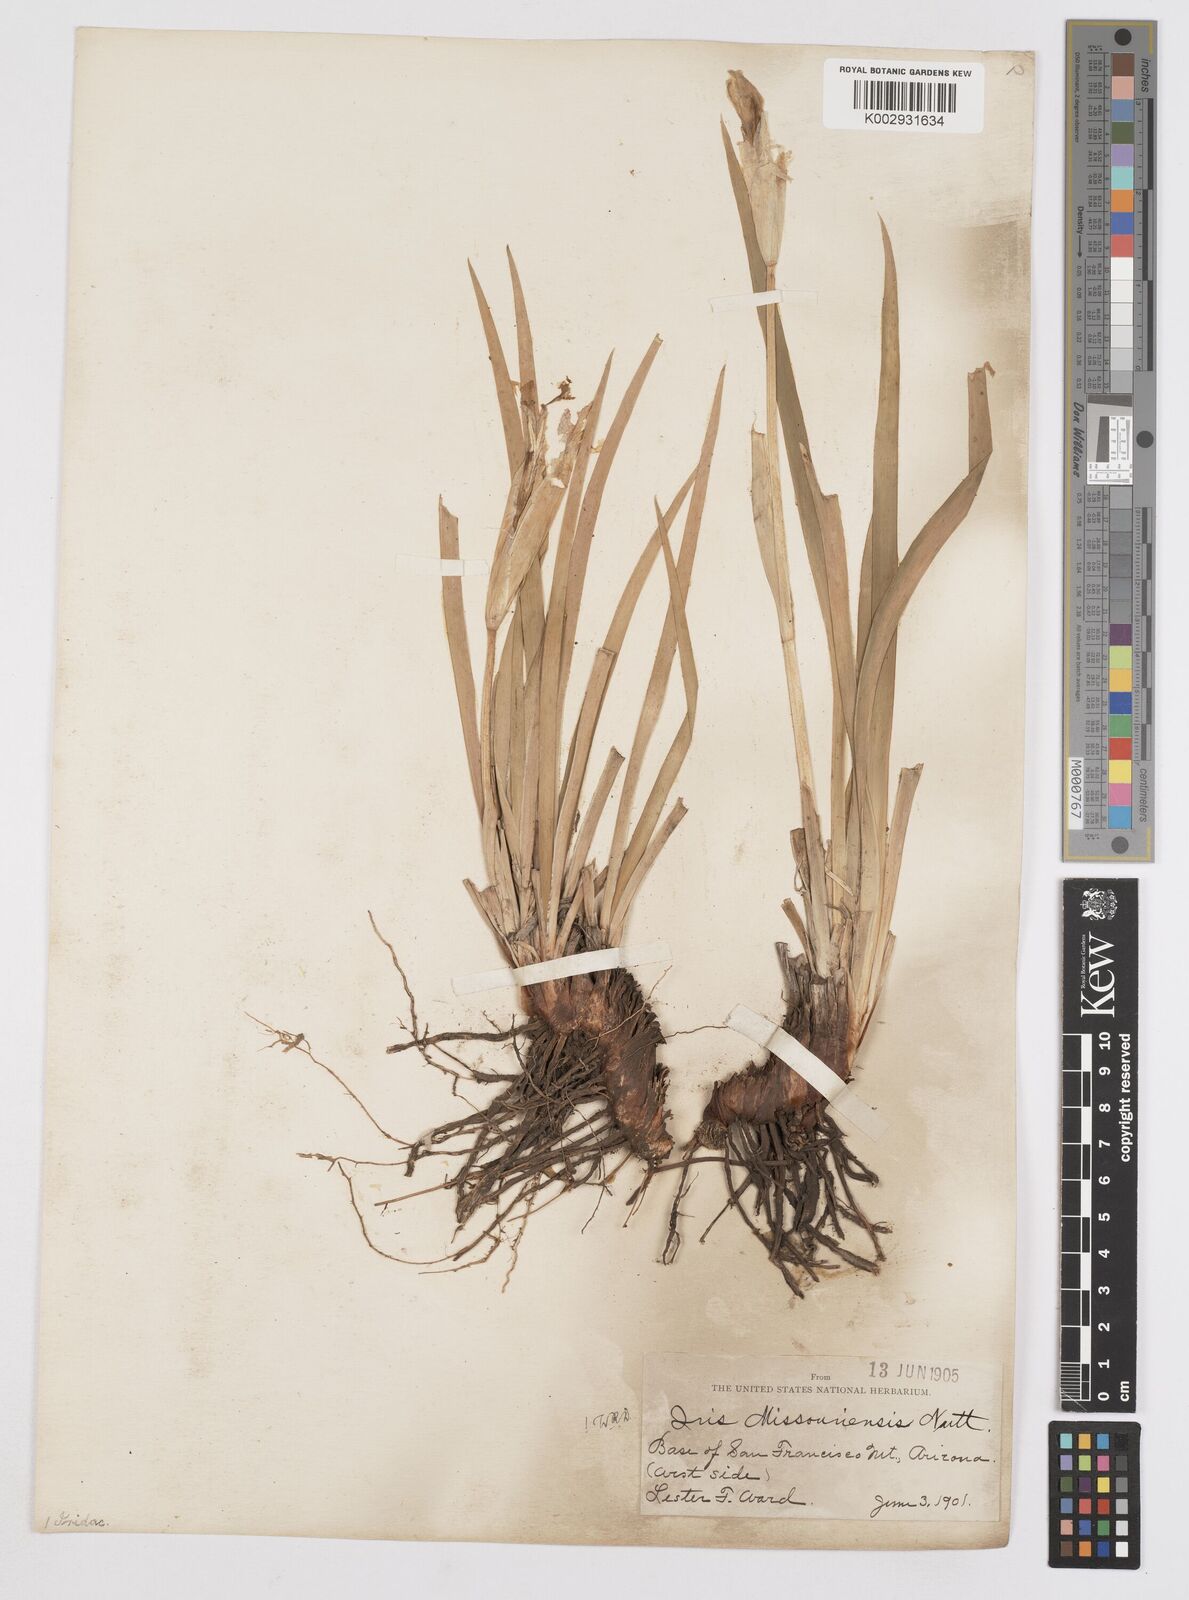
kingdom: Plantae
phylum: Tracheophyta
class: Liliopsida
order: Asparagales
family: Iridaceae
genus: Iris
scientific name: Iris missouriensis
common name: Rocky mountain iris
